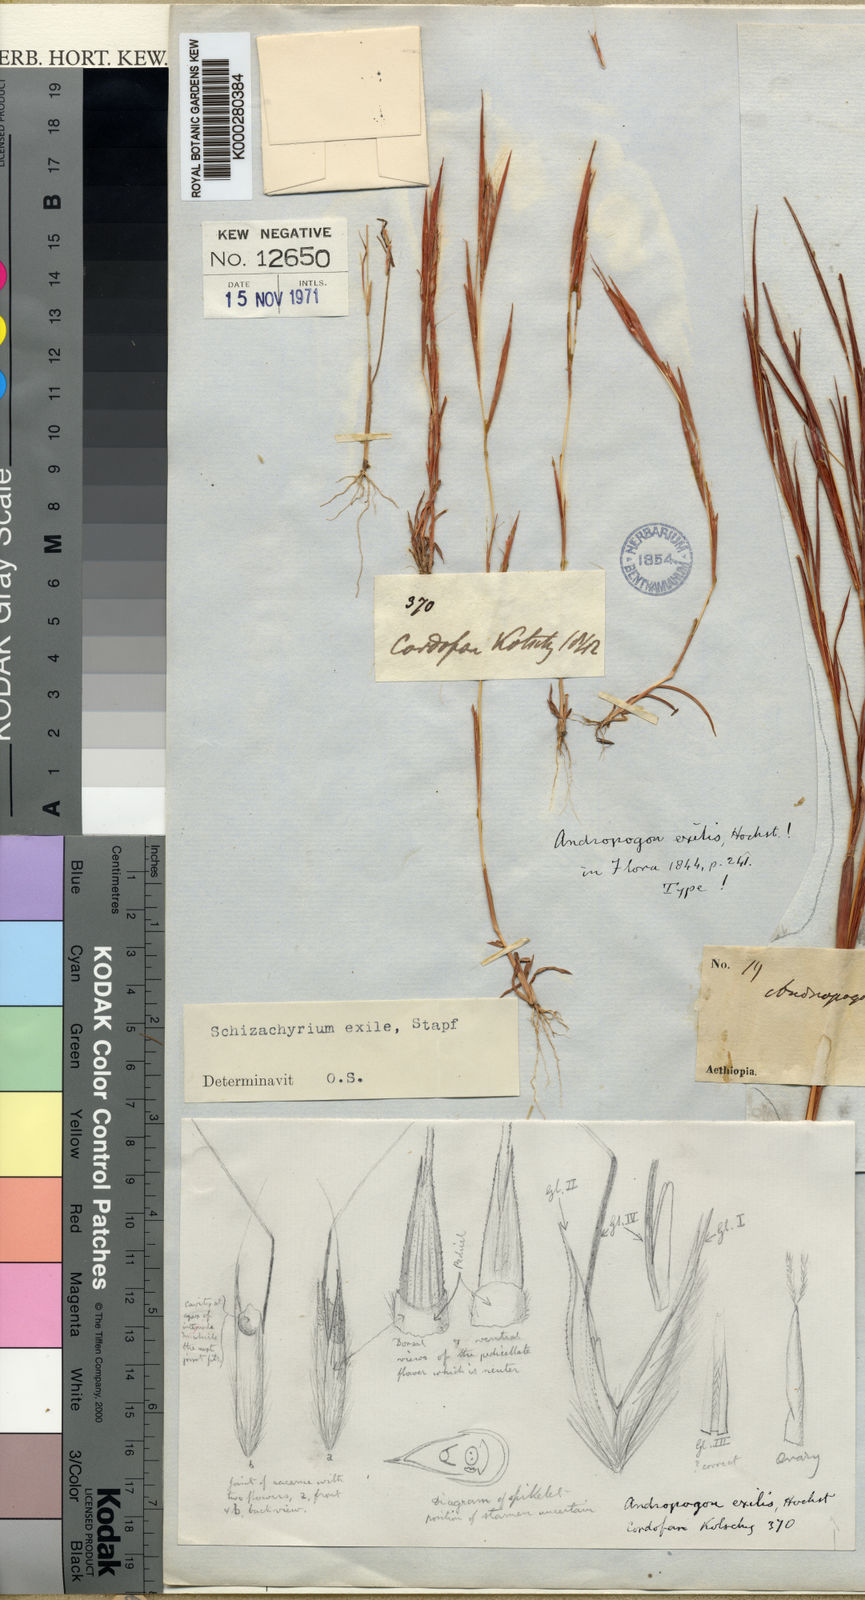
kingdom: Plantae
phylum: Tracheophyta
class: Liliopsida
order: Poales
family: Poaceae
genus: Schizachyrium
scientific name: Schizachyrium exile
